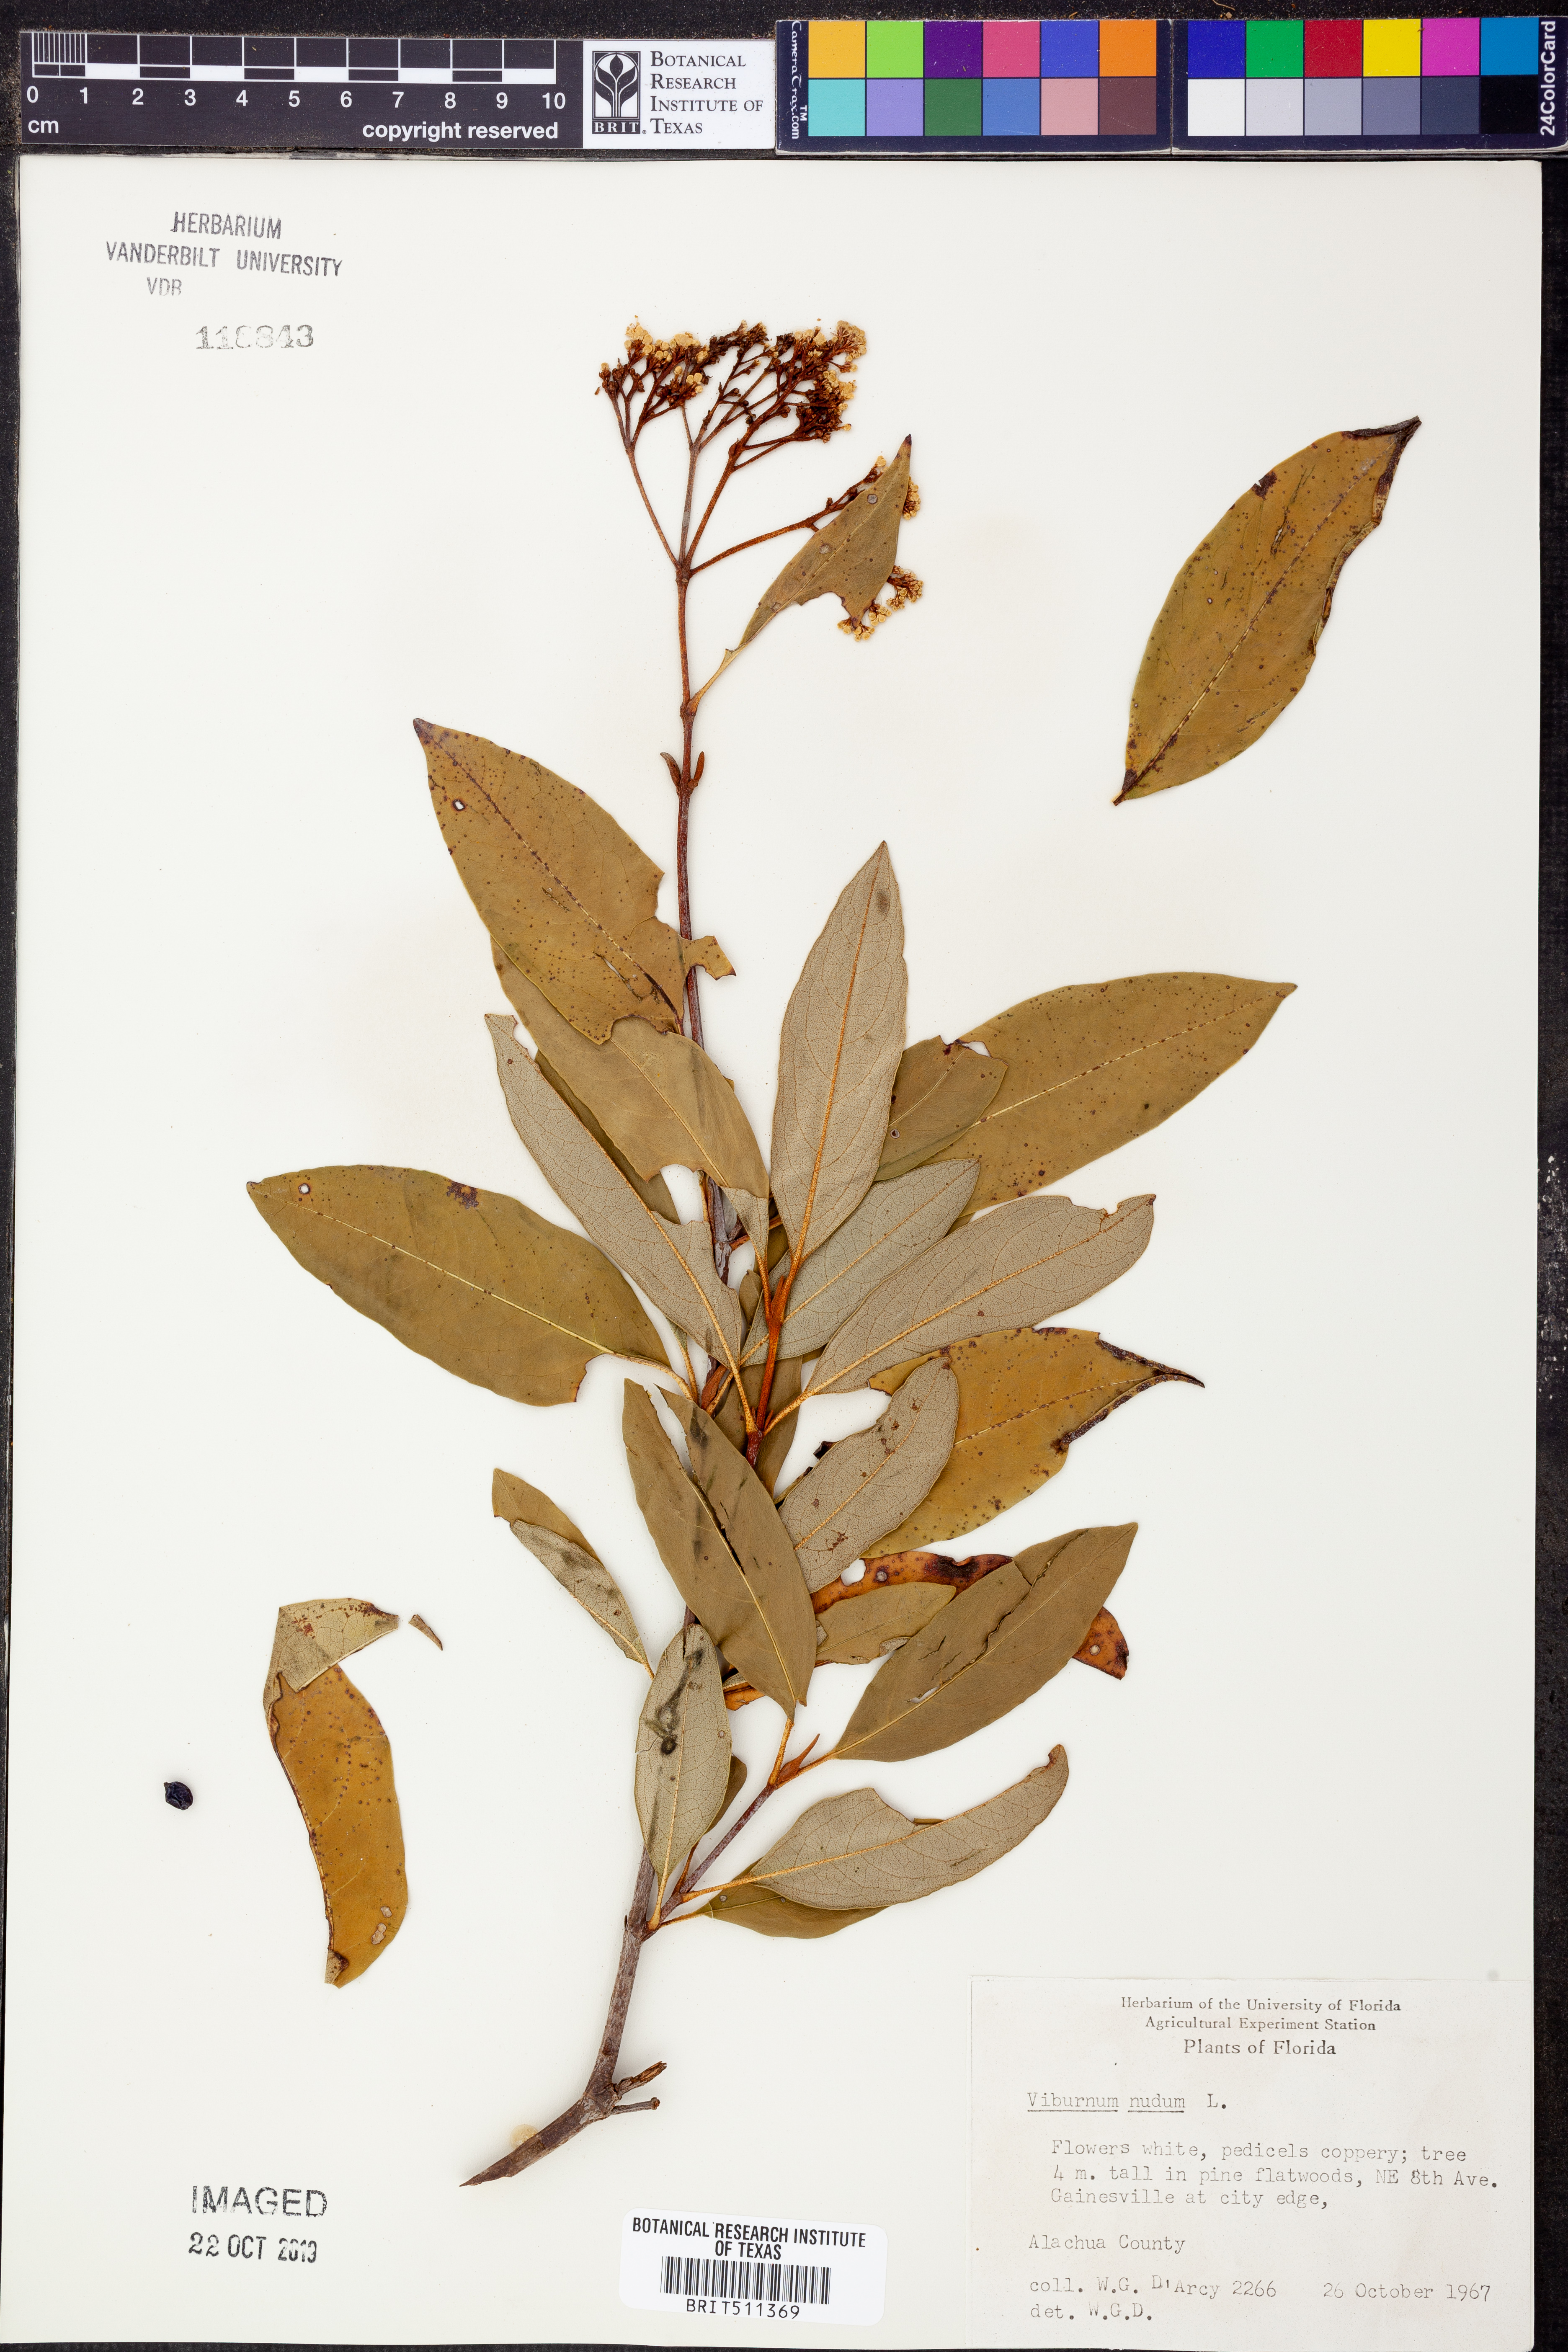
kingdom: Plantae
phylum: Tracheophyta
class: Magnoliopsida
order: Dipsacales
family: Viburnaceae
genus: Viburnum
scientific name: Viburnum nudum
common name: Possum haw
